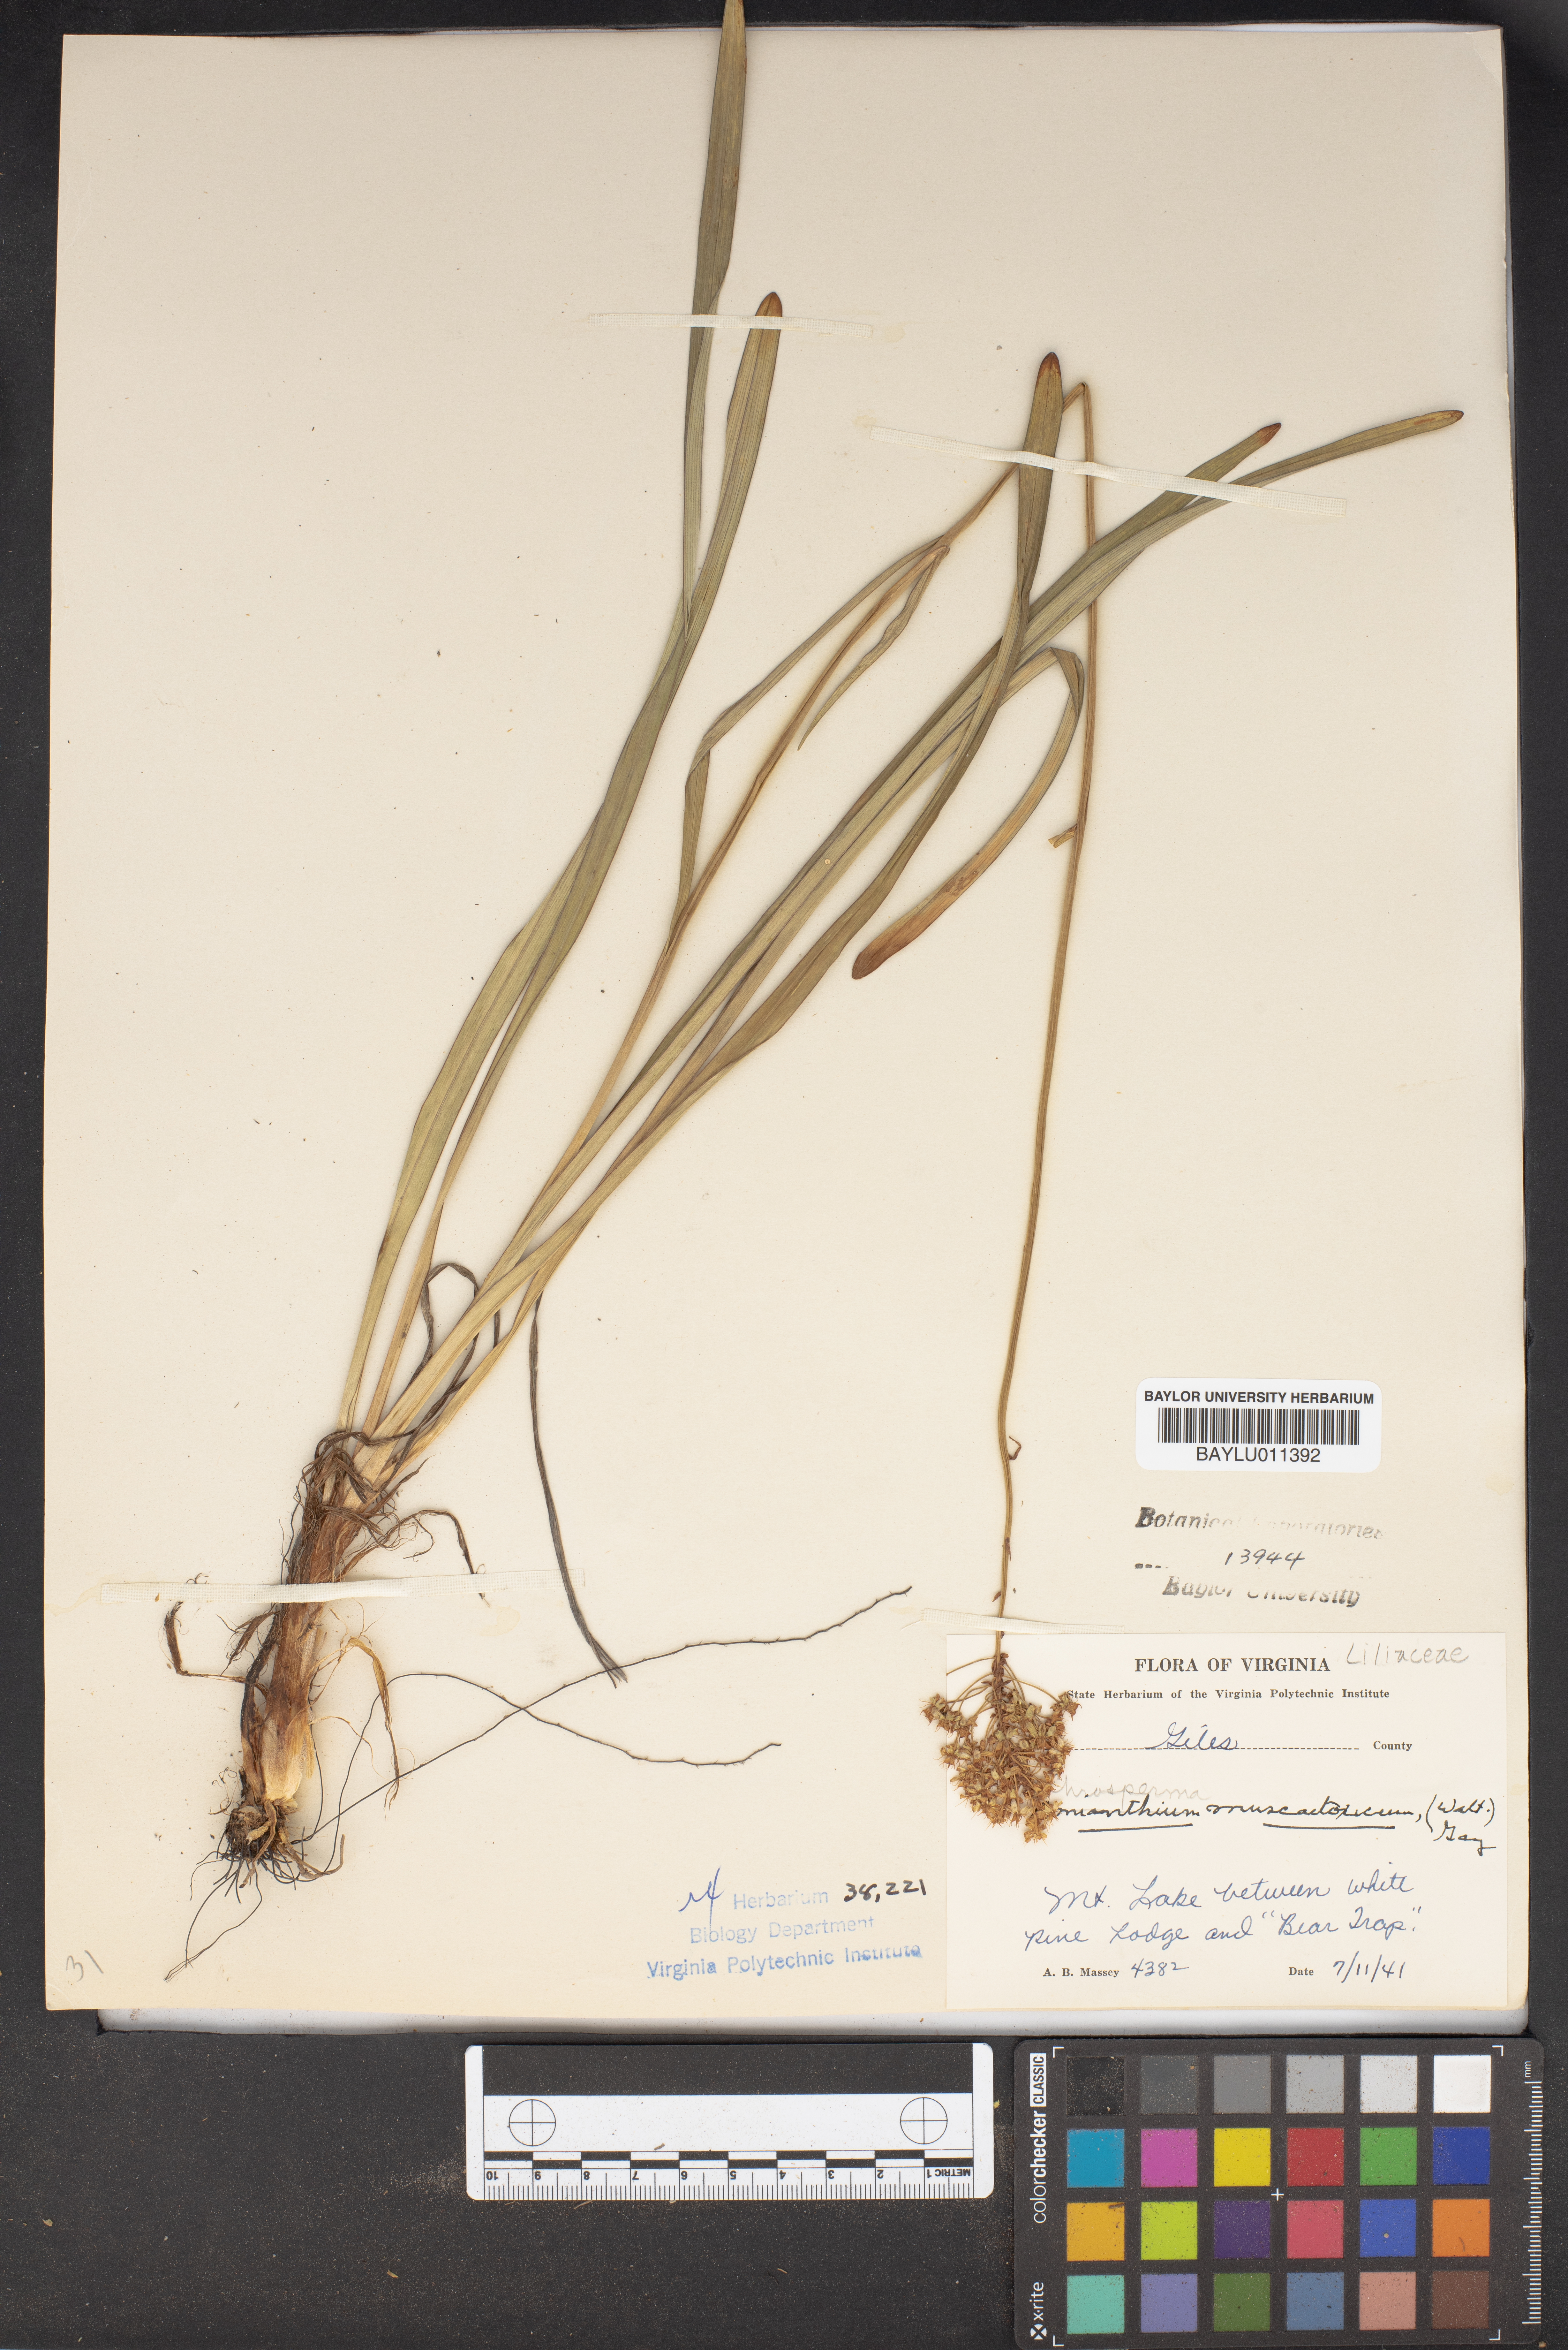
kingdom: Plantae
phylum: Tracheophyta
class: Liliopsida
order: Liliales
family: Melanthiaceae
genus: Amianthium
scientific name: Amianthium muscitoxicum
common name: Fly-poison
